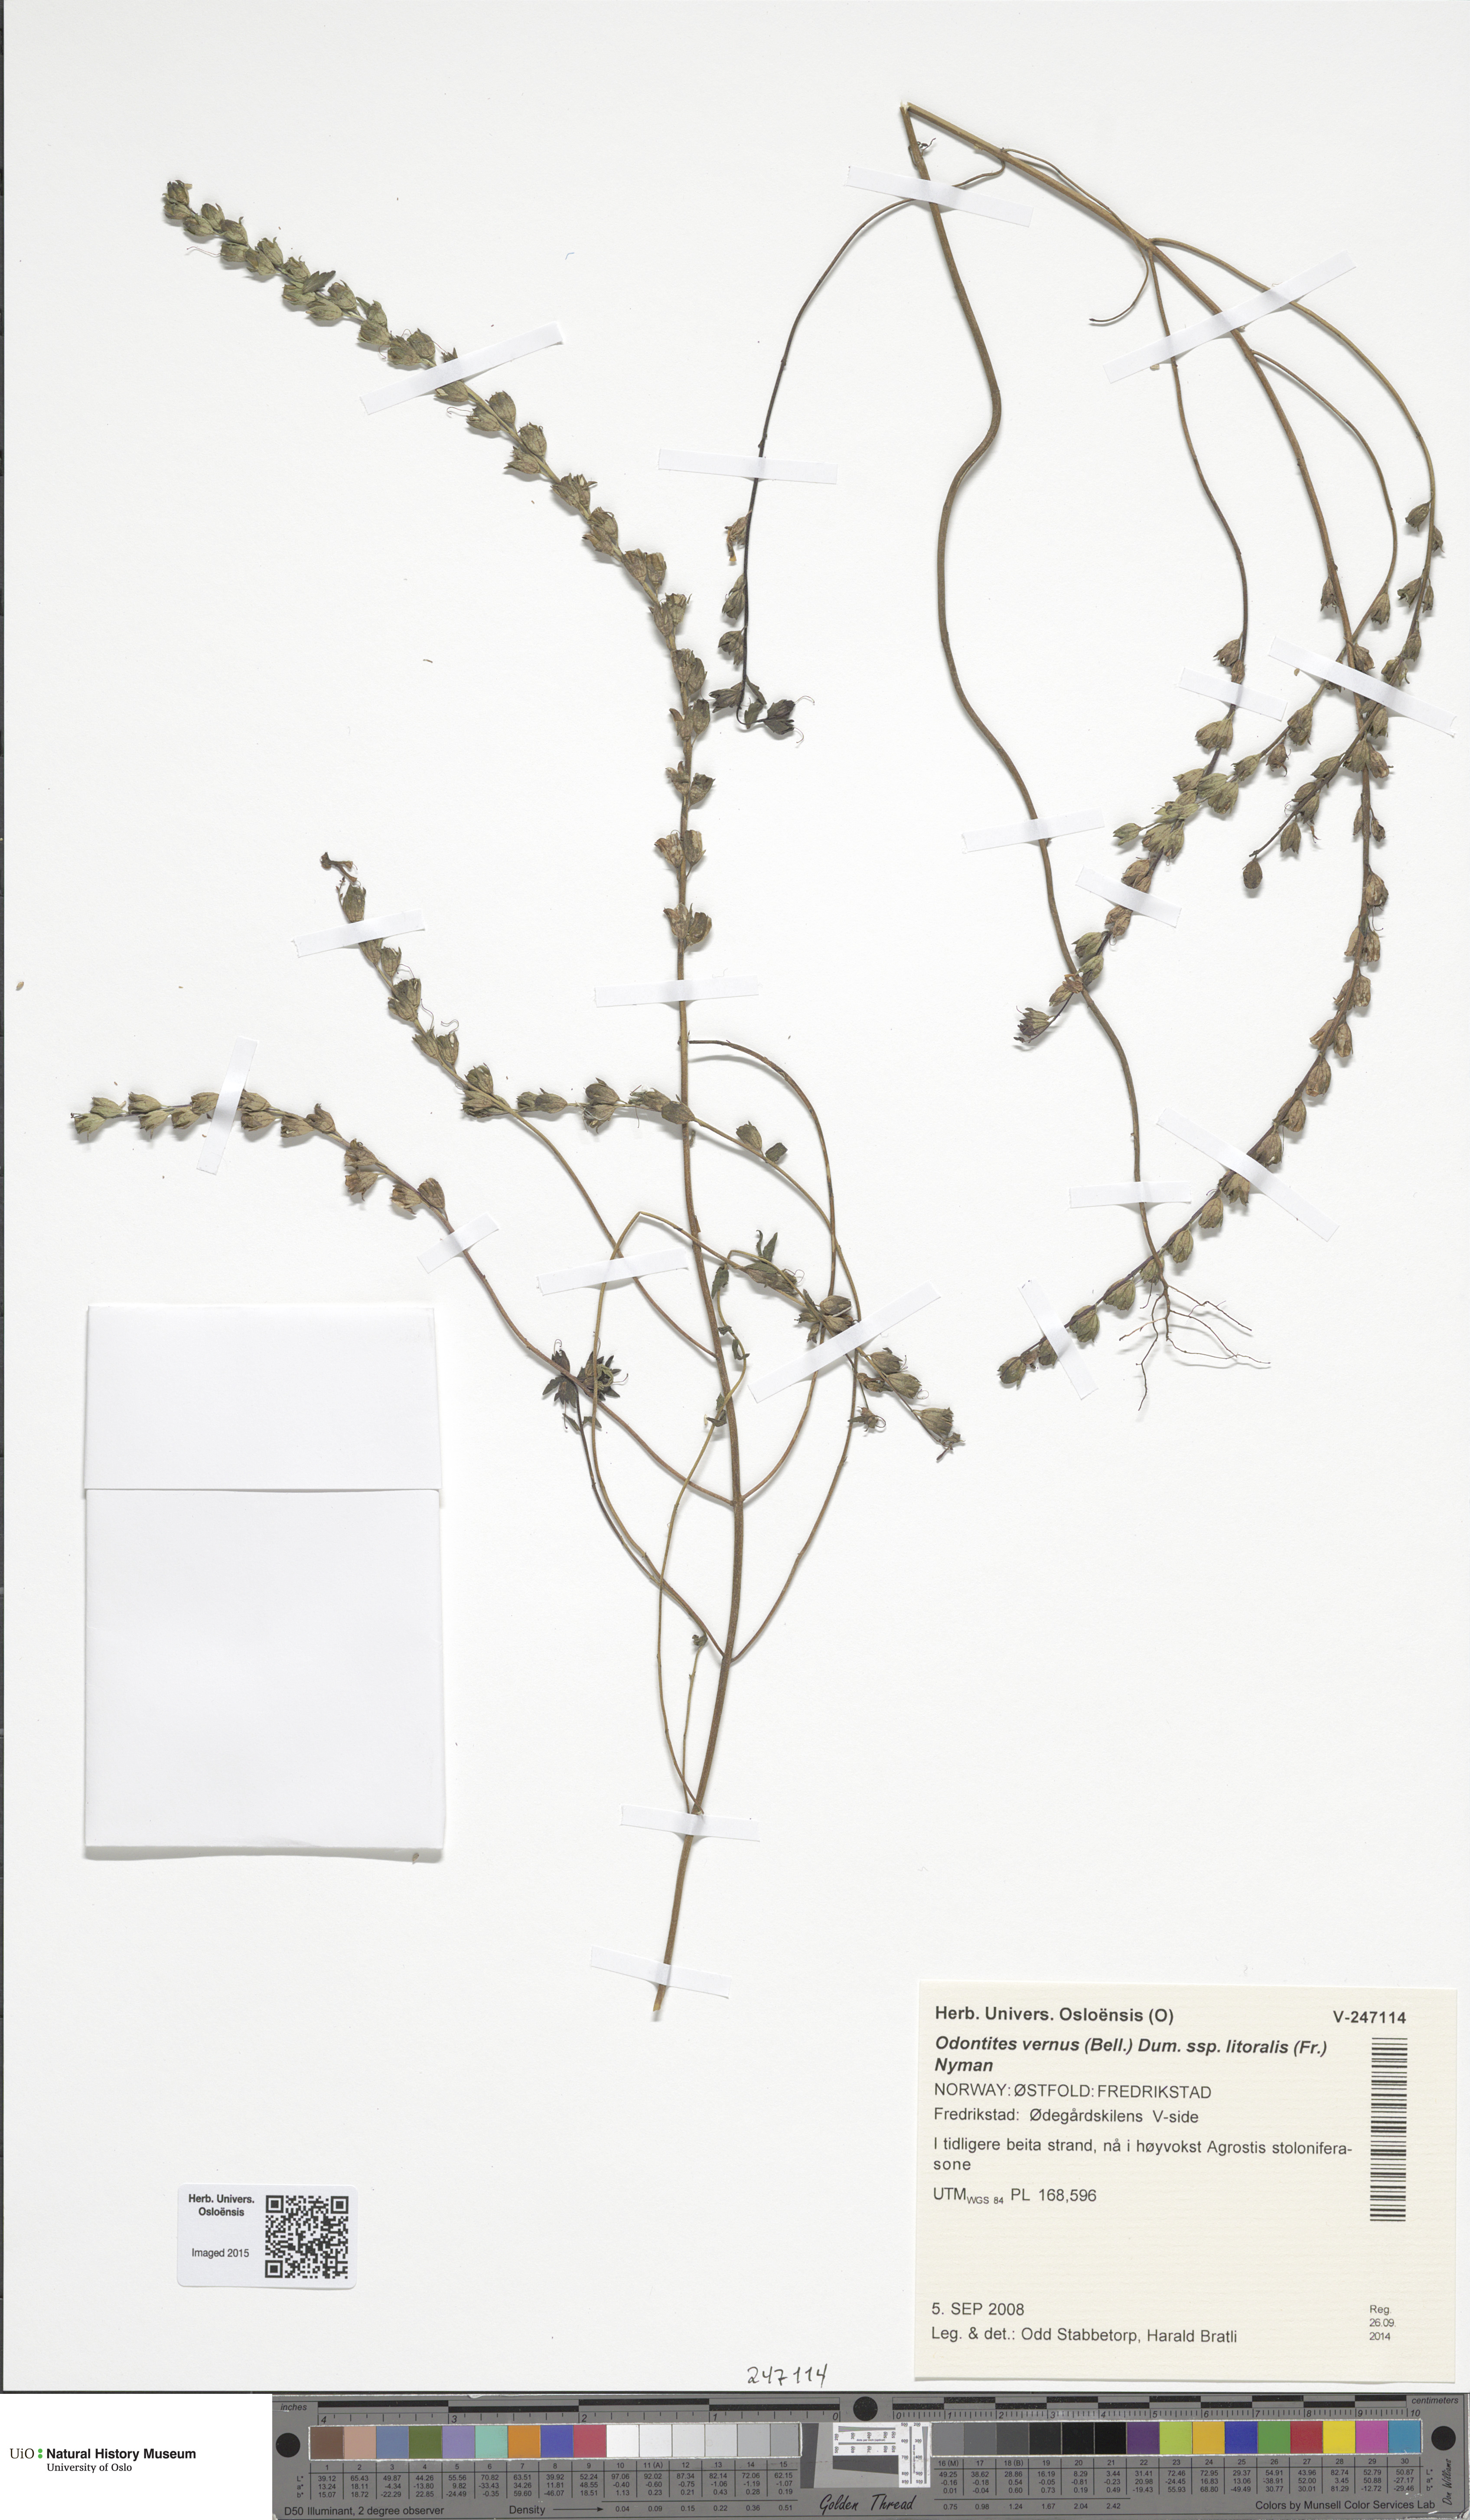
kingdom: Plantae
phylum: Tracheophyta
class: Magnoliopsida
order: Lamiales
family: Orobanchaceae
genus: Odontites
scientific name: Odontites litoralis
